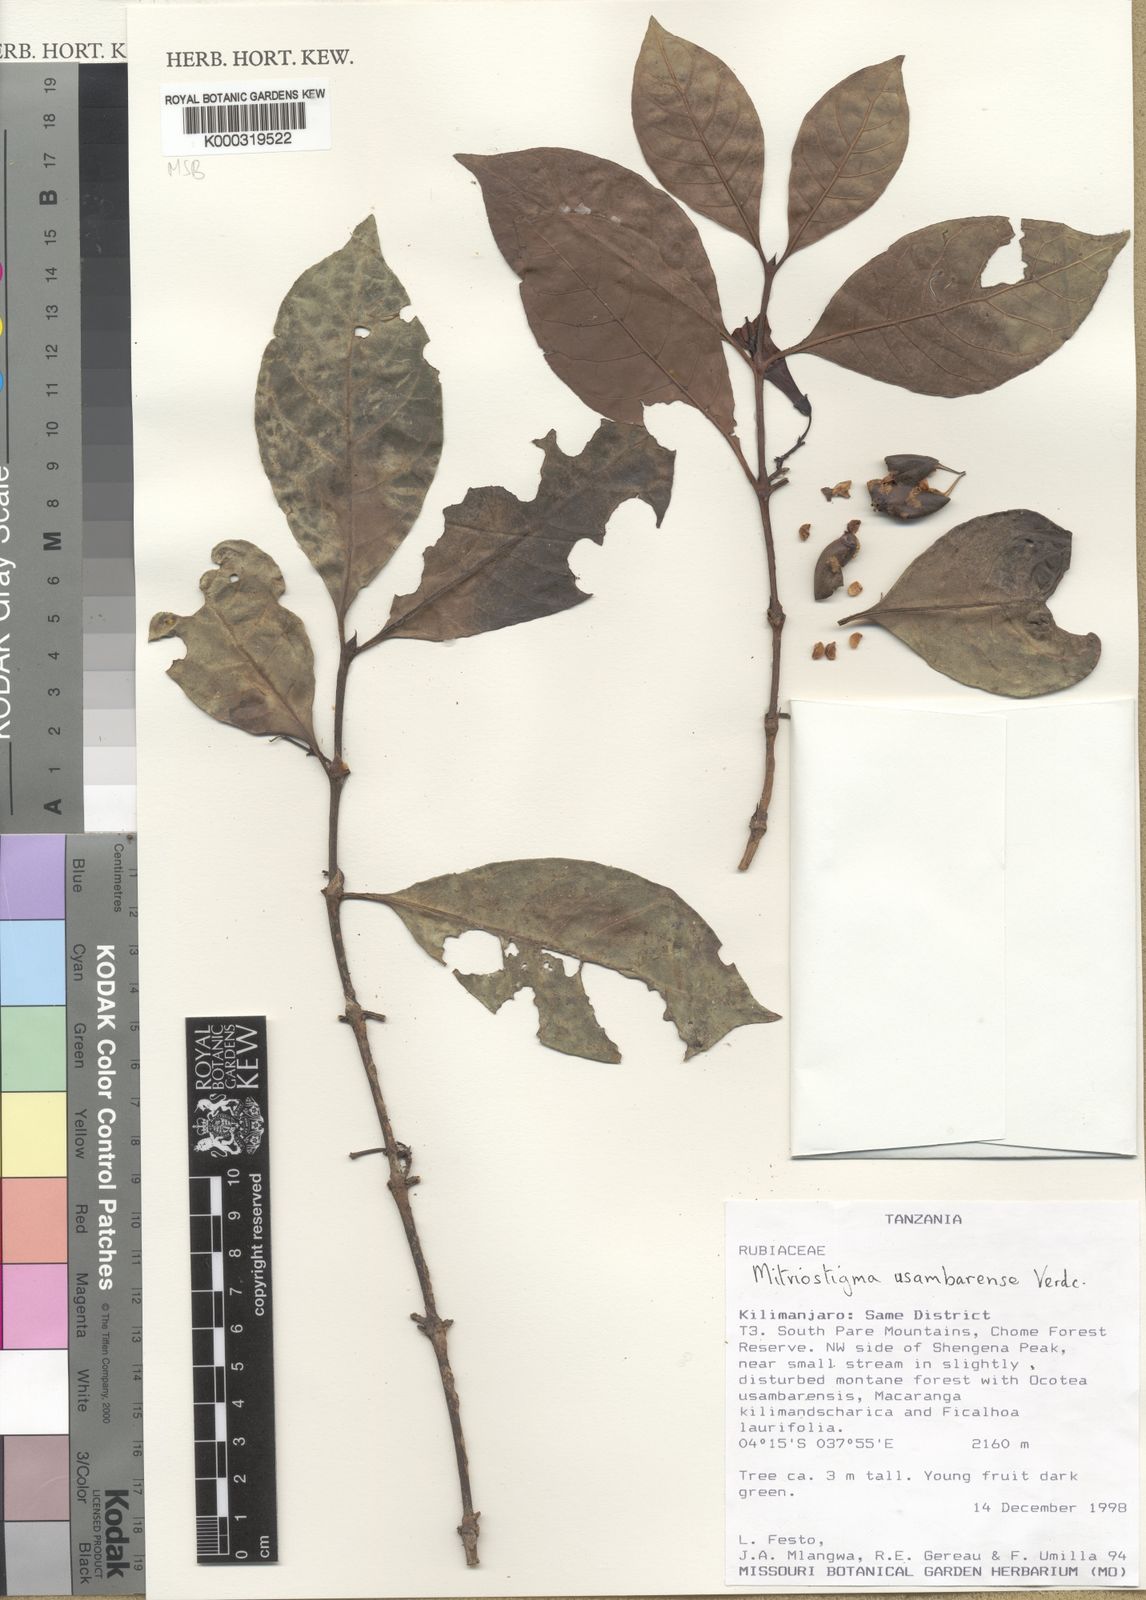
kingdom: Plantae
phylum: Tracheophyta
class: Magnoliopsida
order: Gentianales
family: Rubiaceae
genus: Mitriostigma
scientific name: Mitriostigma usambarense
